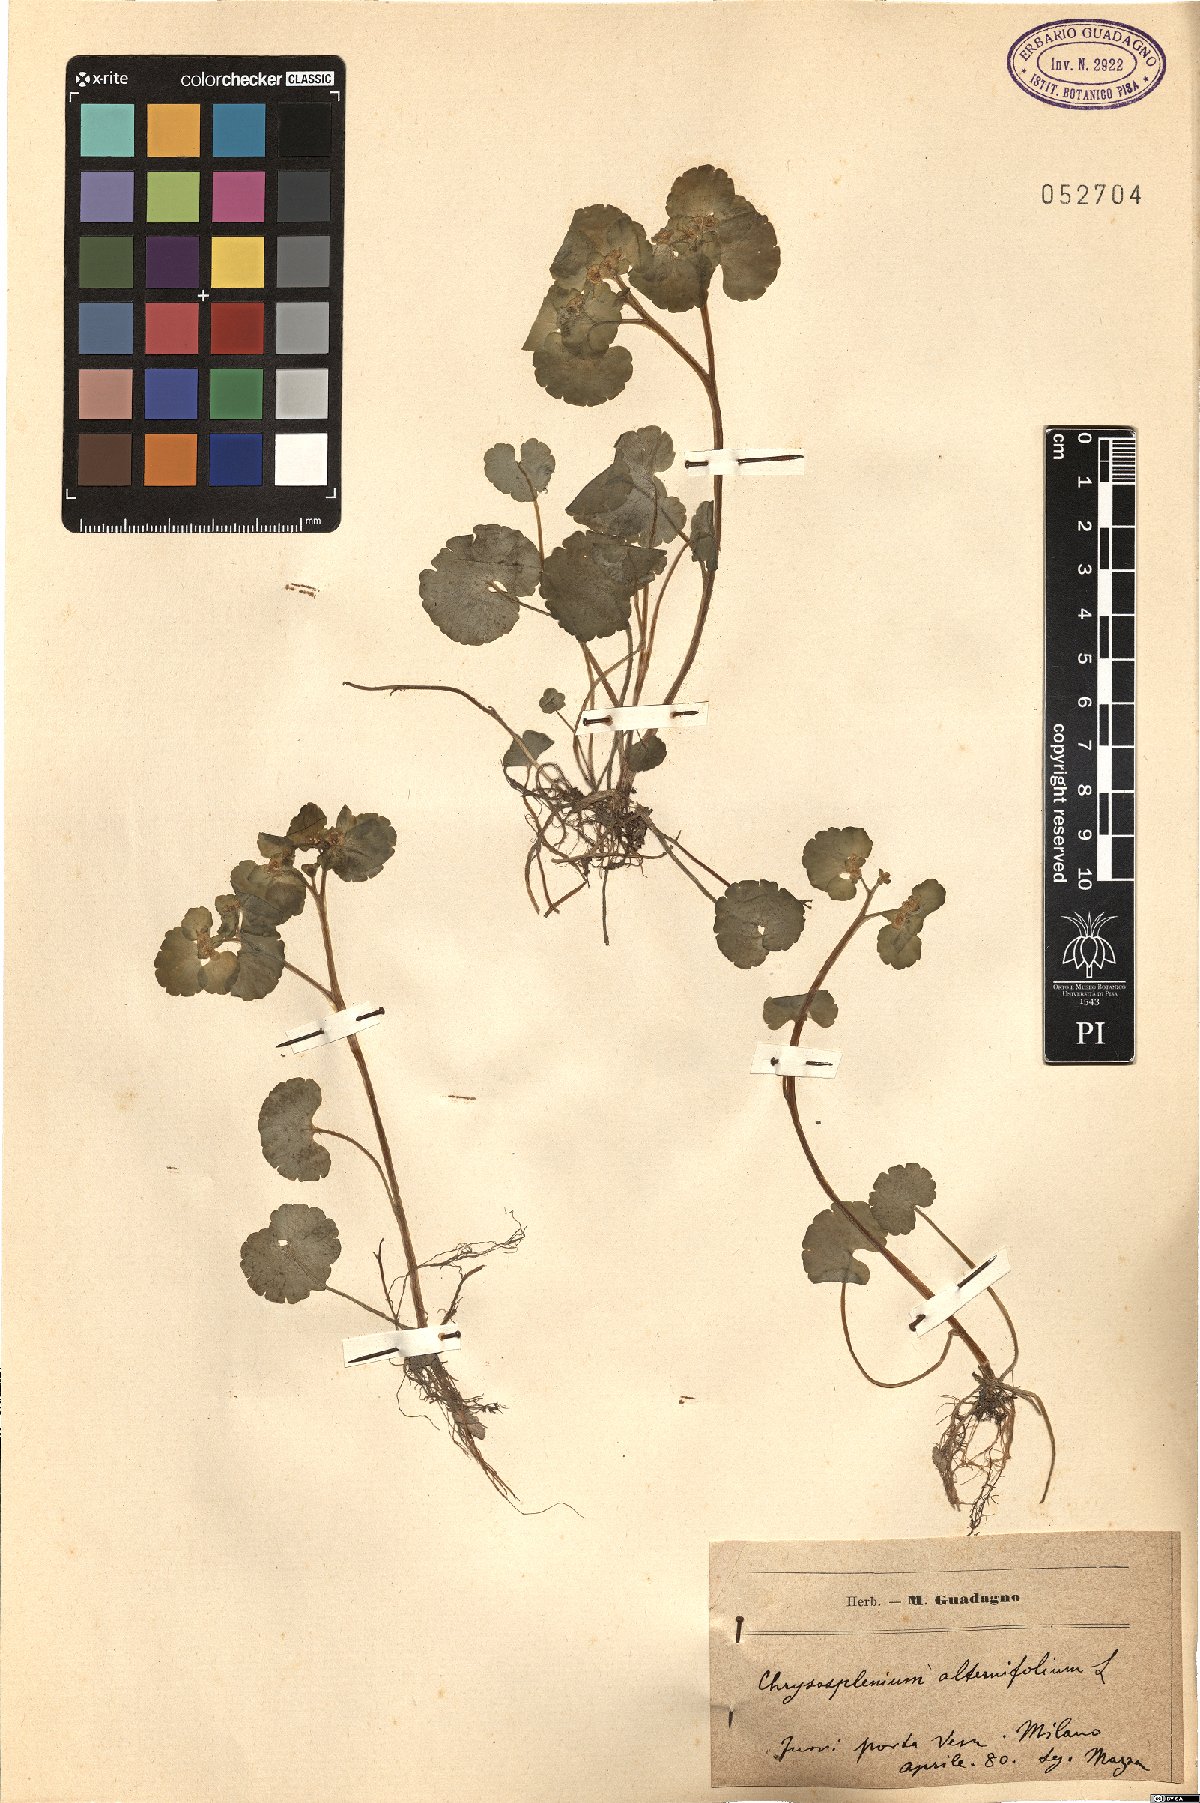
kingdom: Plantae
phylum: Tracheophyta
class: Magnoliopsida
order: Saxifragales
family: Saxifragaceae
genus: Chrysosplenium
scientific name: Chrysosplenium alternifolium
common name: Alternate-leaved golden-saxifrage
